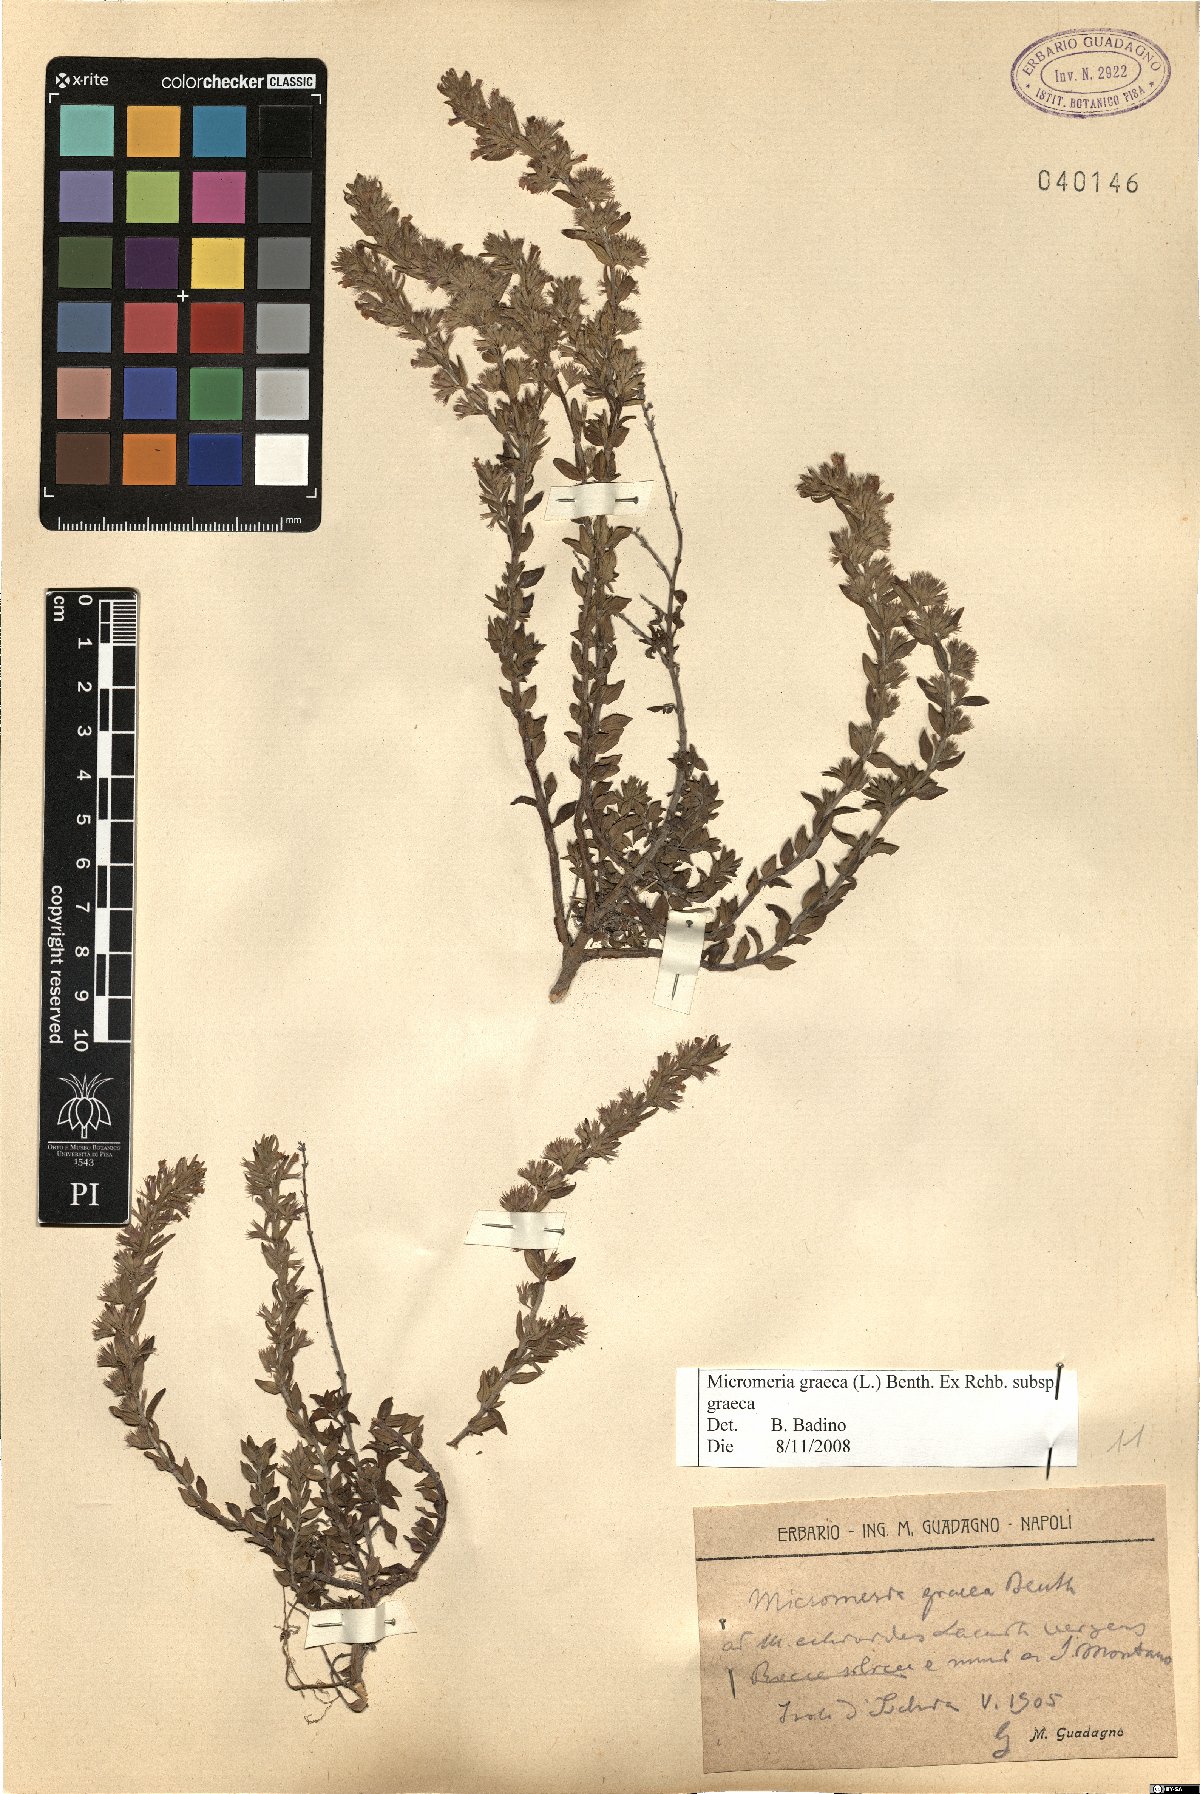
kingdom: Plantae
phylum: Tracheophyta
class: Magnoliopsida
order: Lamiales
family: Lamiaceae
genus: Micromeria
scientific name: Micromeria graeca
